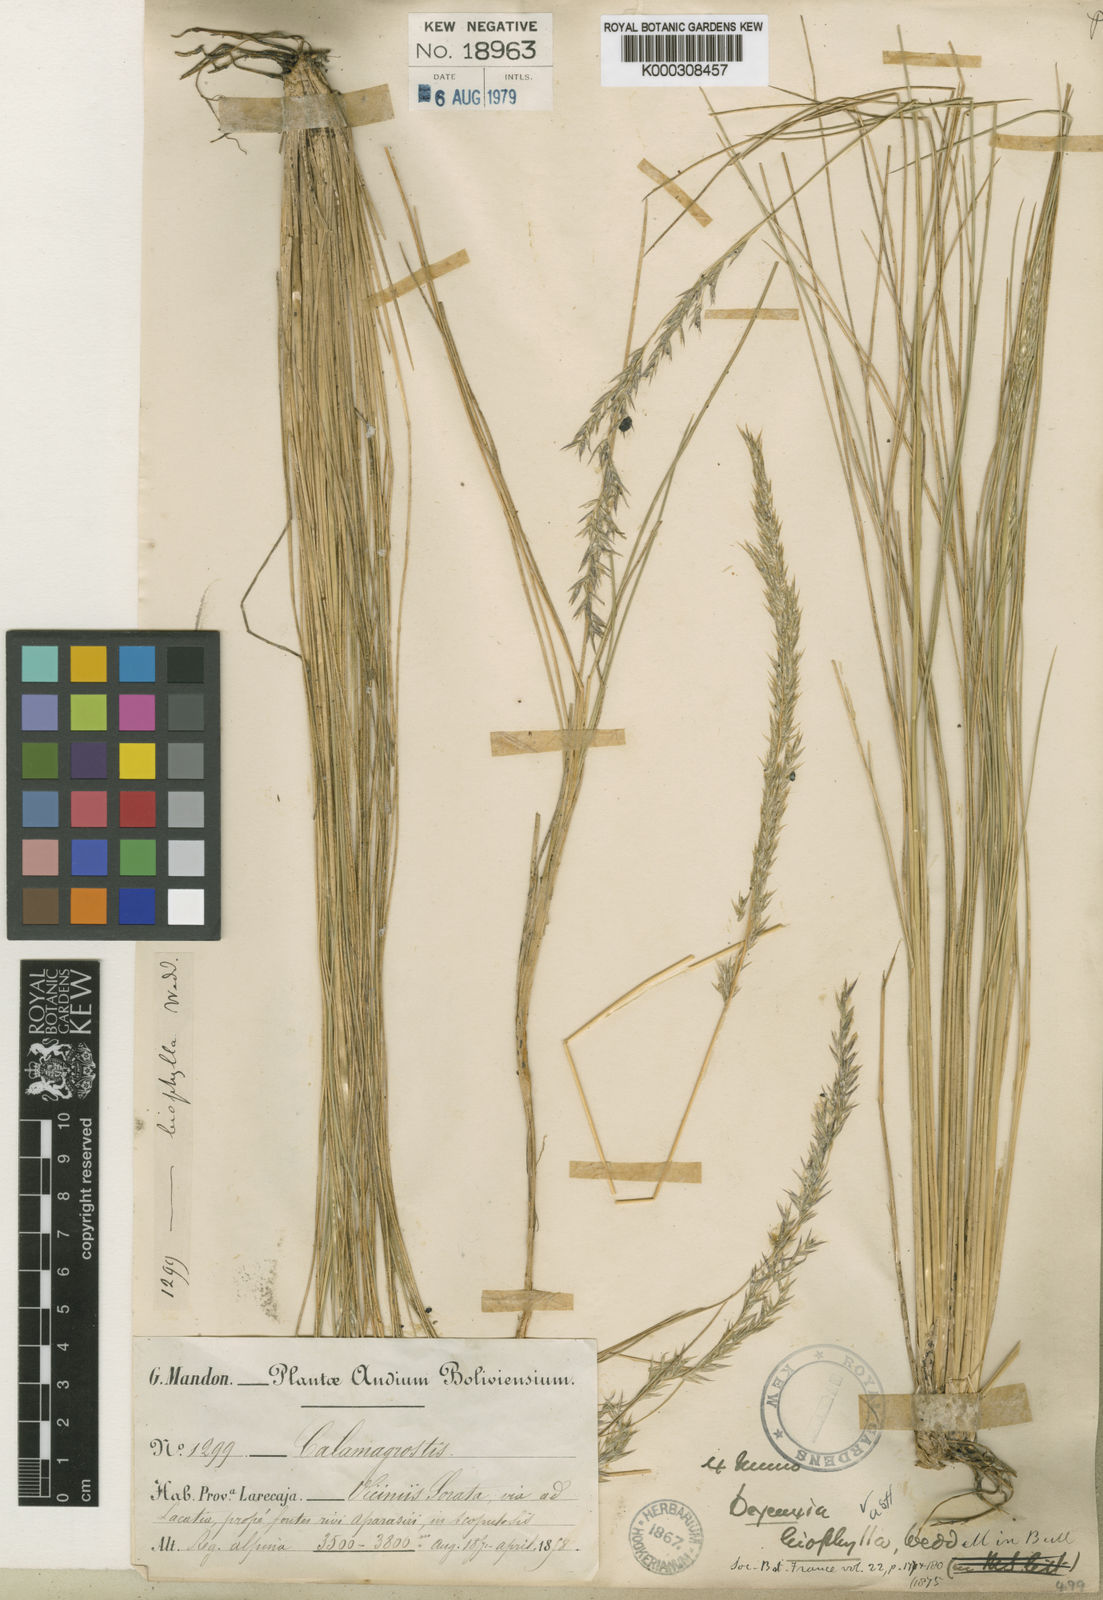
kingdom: Plantae
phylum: Tracheophyta
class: Liliopsida
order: Poales
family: Poaceae
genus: Cinnagrostis
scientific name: Cinnagrostis leiophylla
